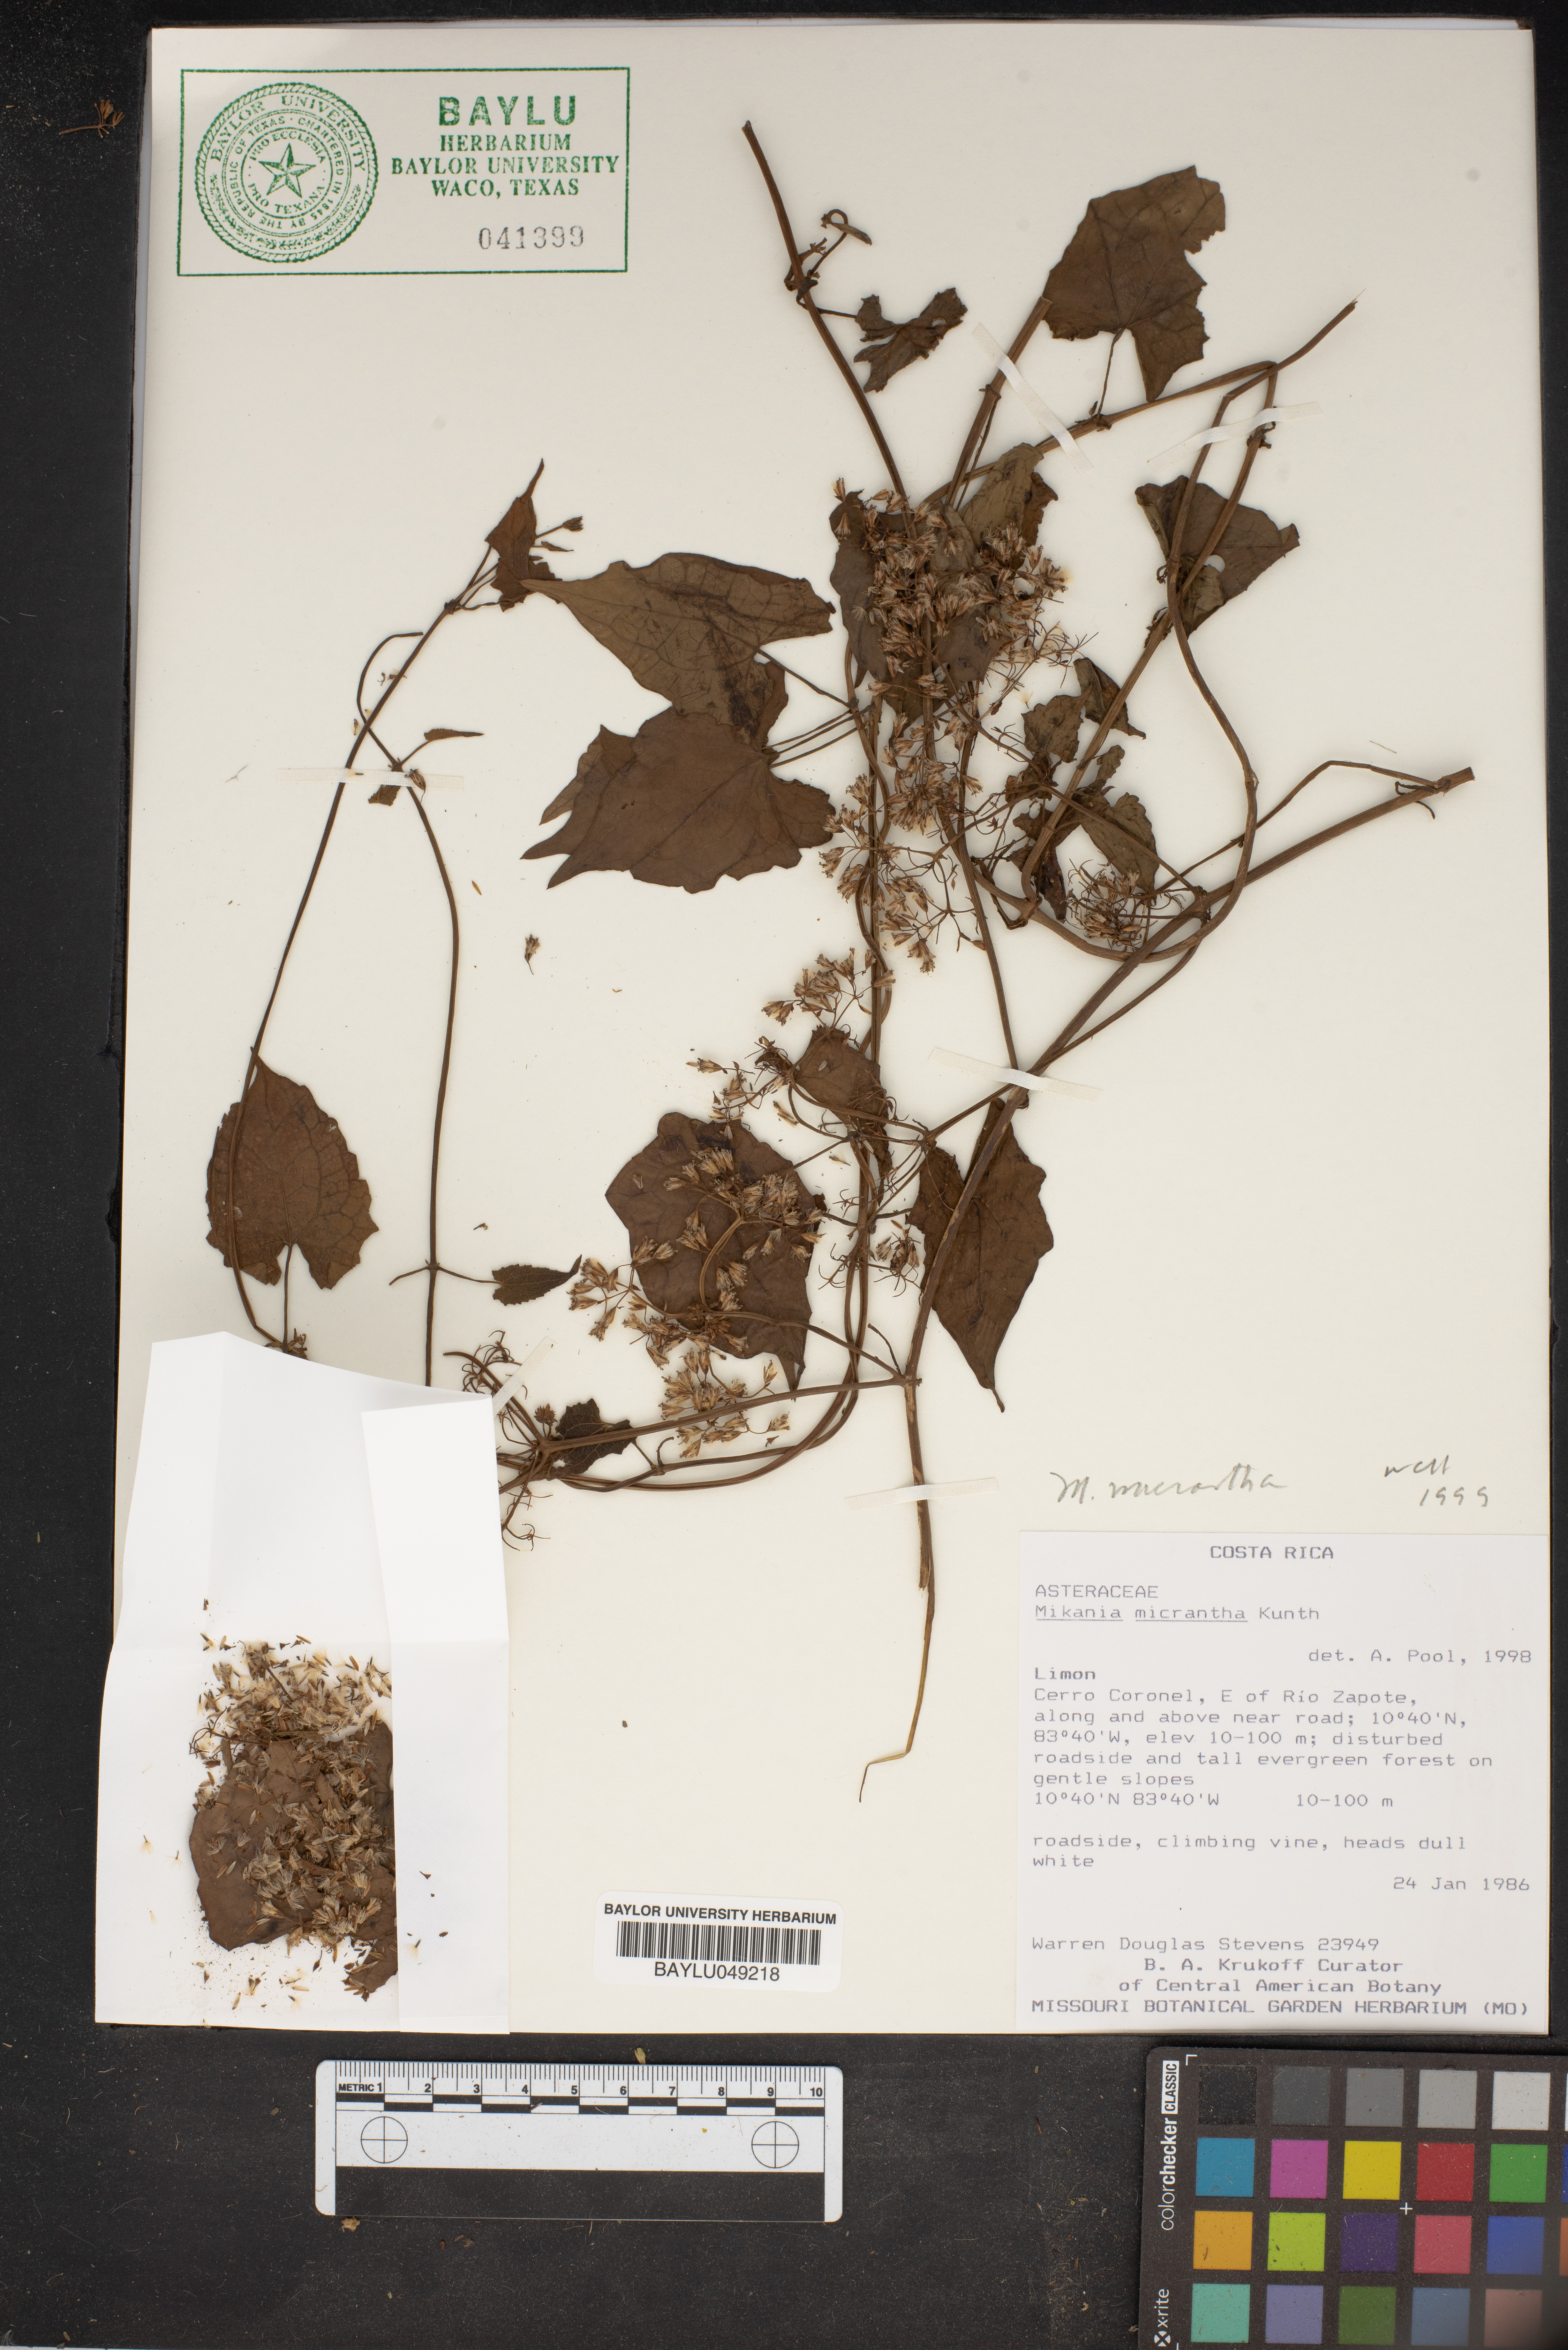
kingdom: Plantae
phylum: Tracheophyta
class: Magnoliopsida
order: Asterales
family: Asteraceae
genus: Mikania
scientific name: Mikania micrantha
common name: Mile-a-minute
